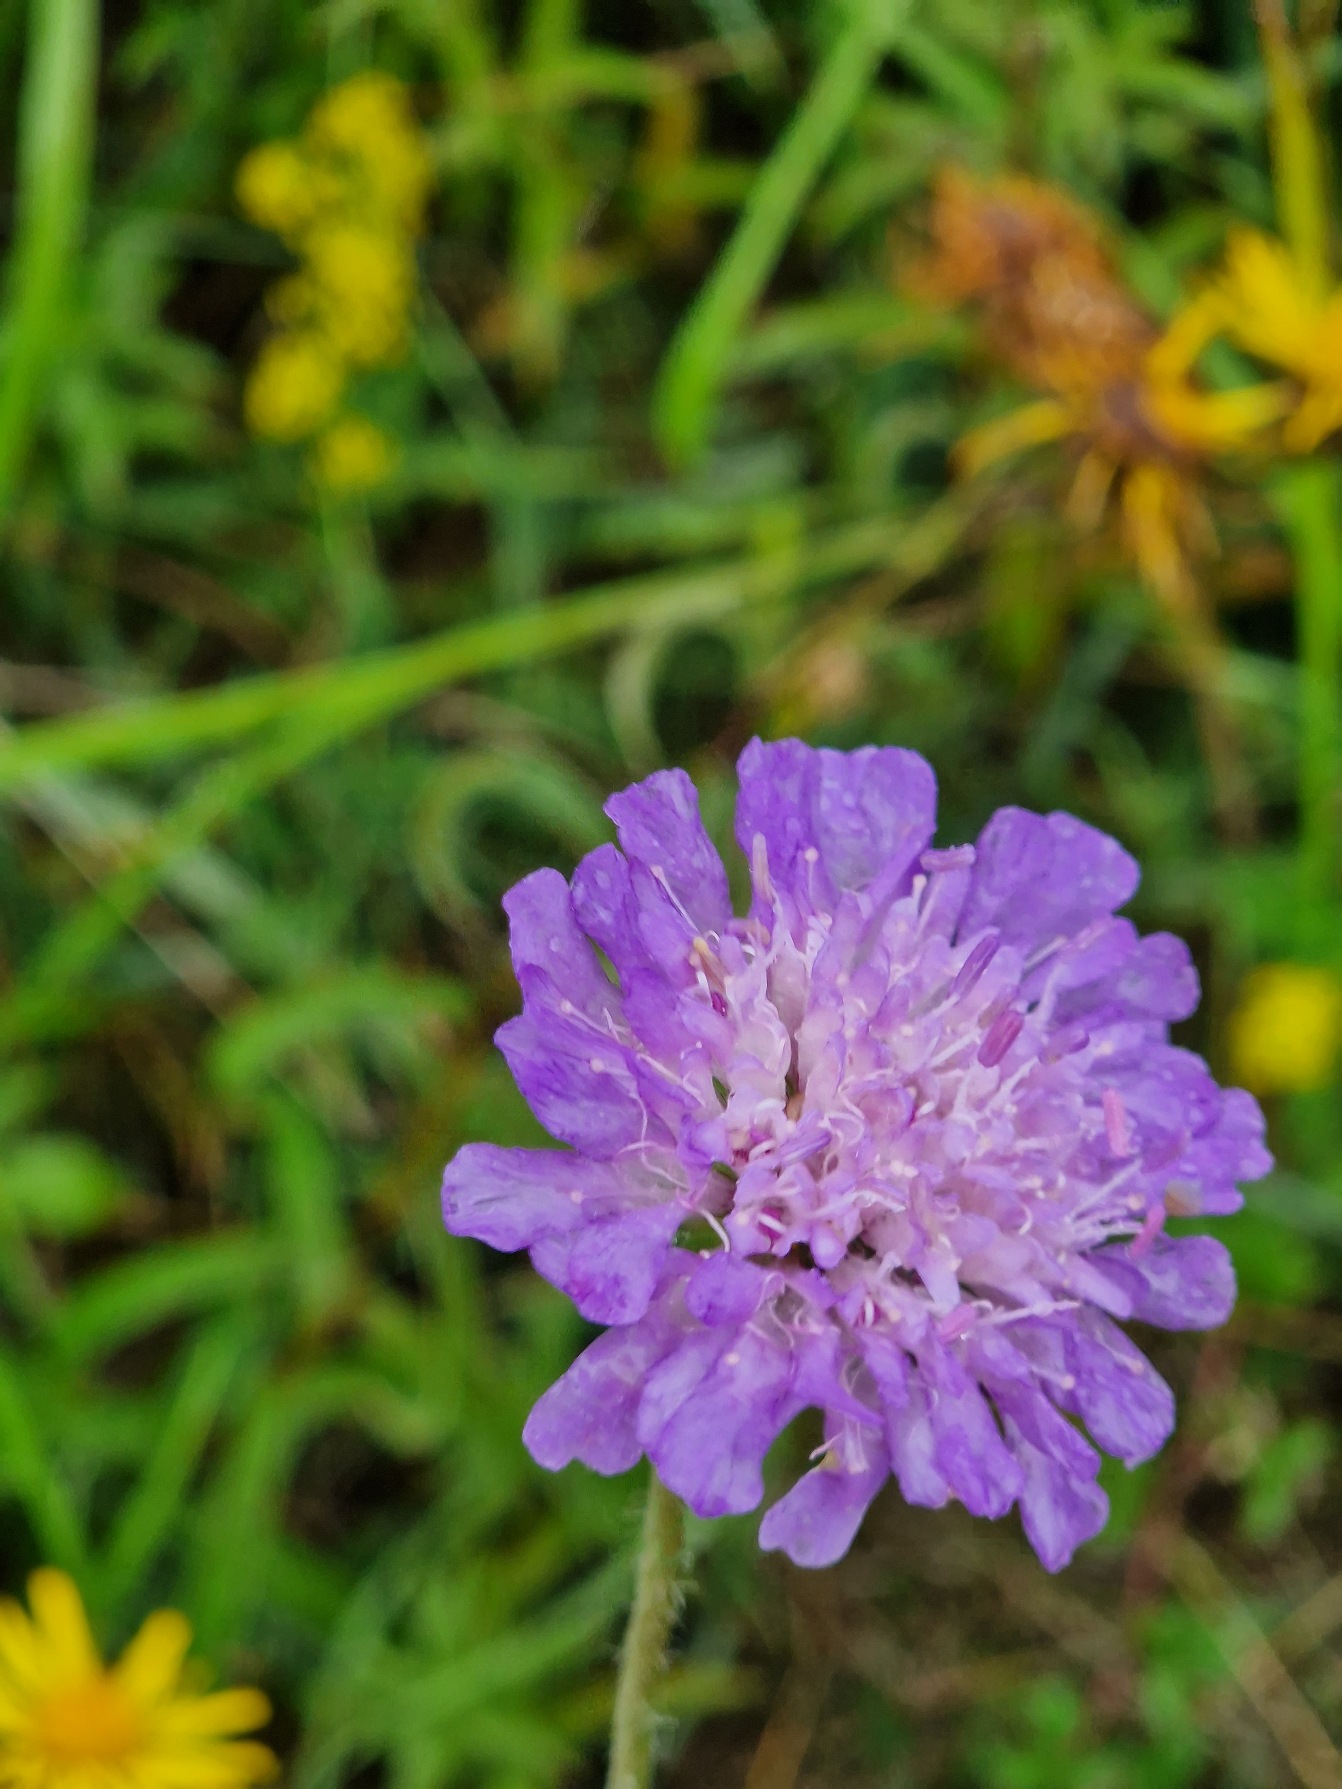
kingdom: Plantae
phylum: Tracheophyta
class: Magnoliopsida
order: Dipsacales
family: Caprifoliaceae
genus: Knautia
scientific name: Knautia arvensis
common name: Blåhat
